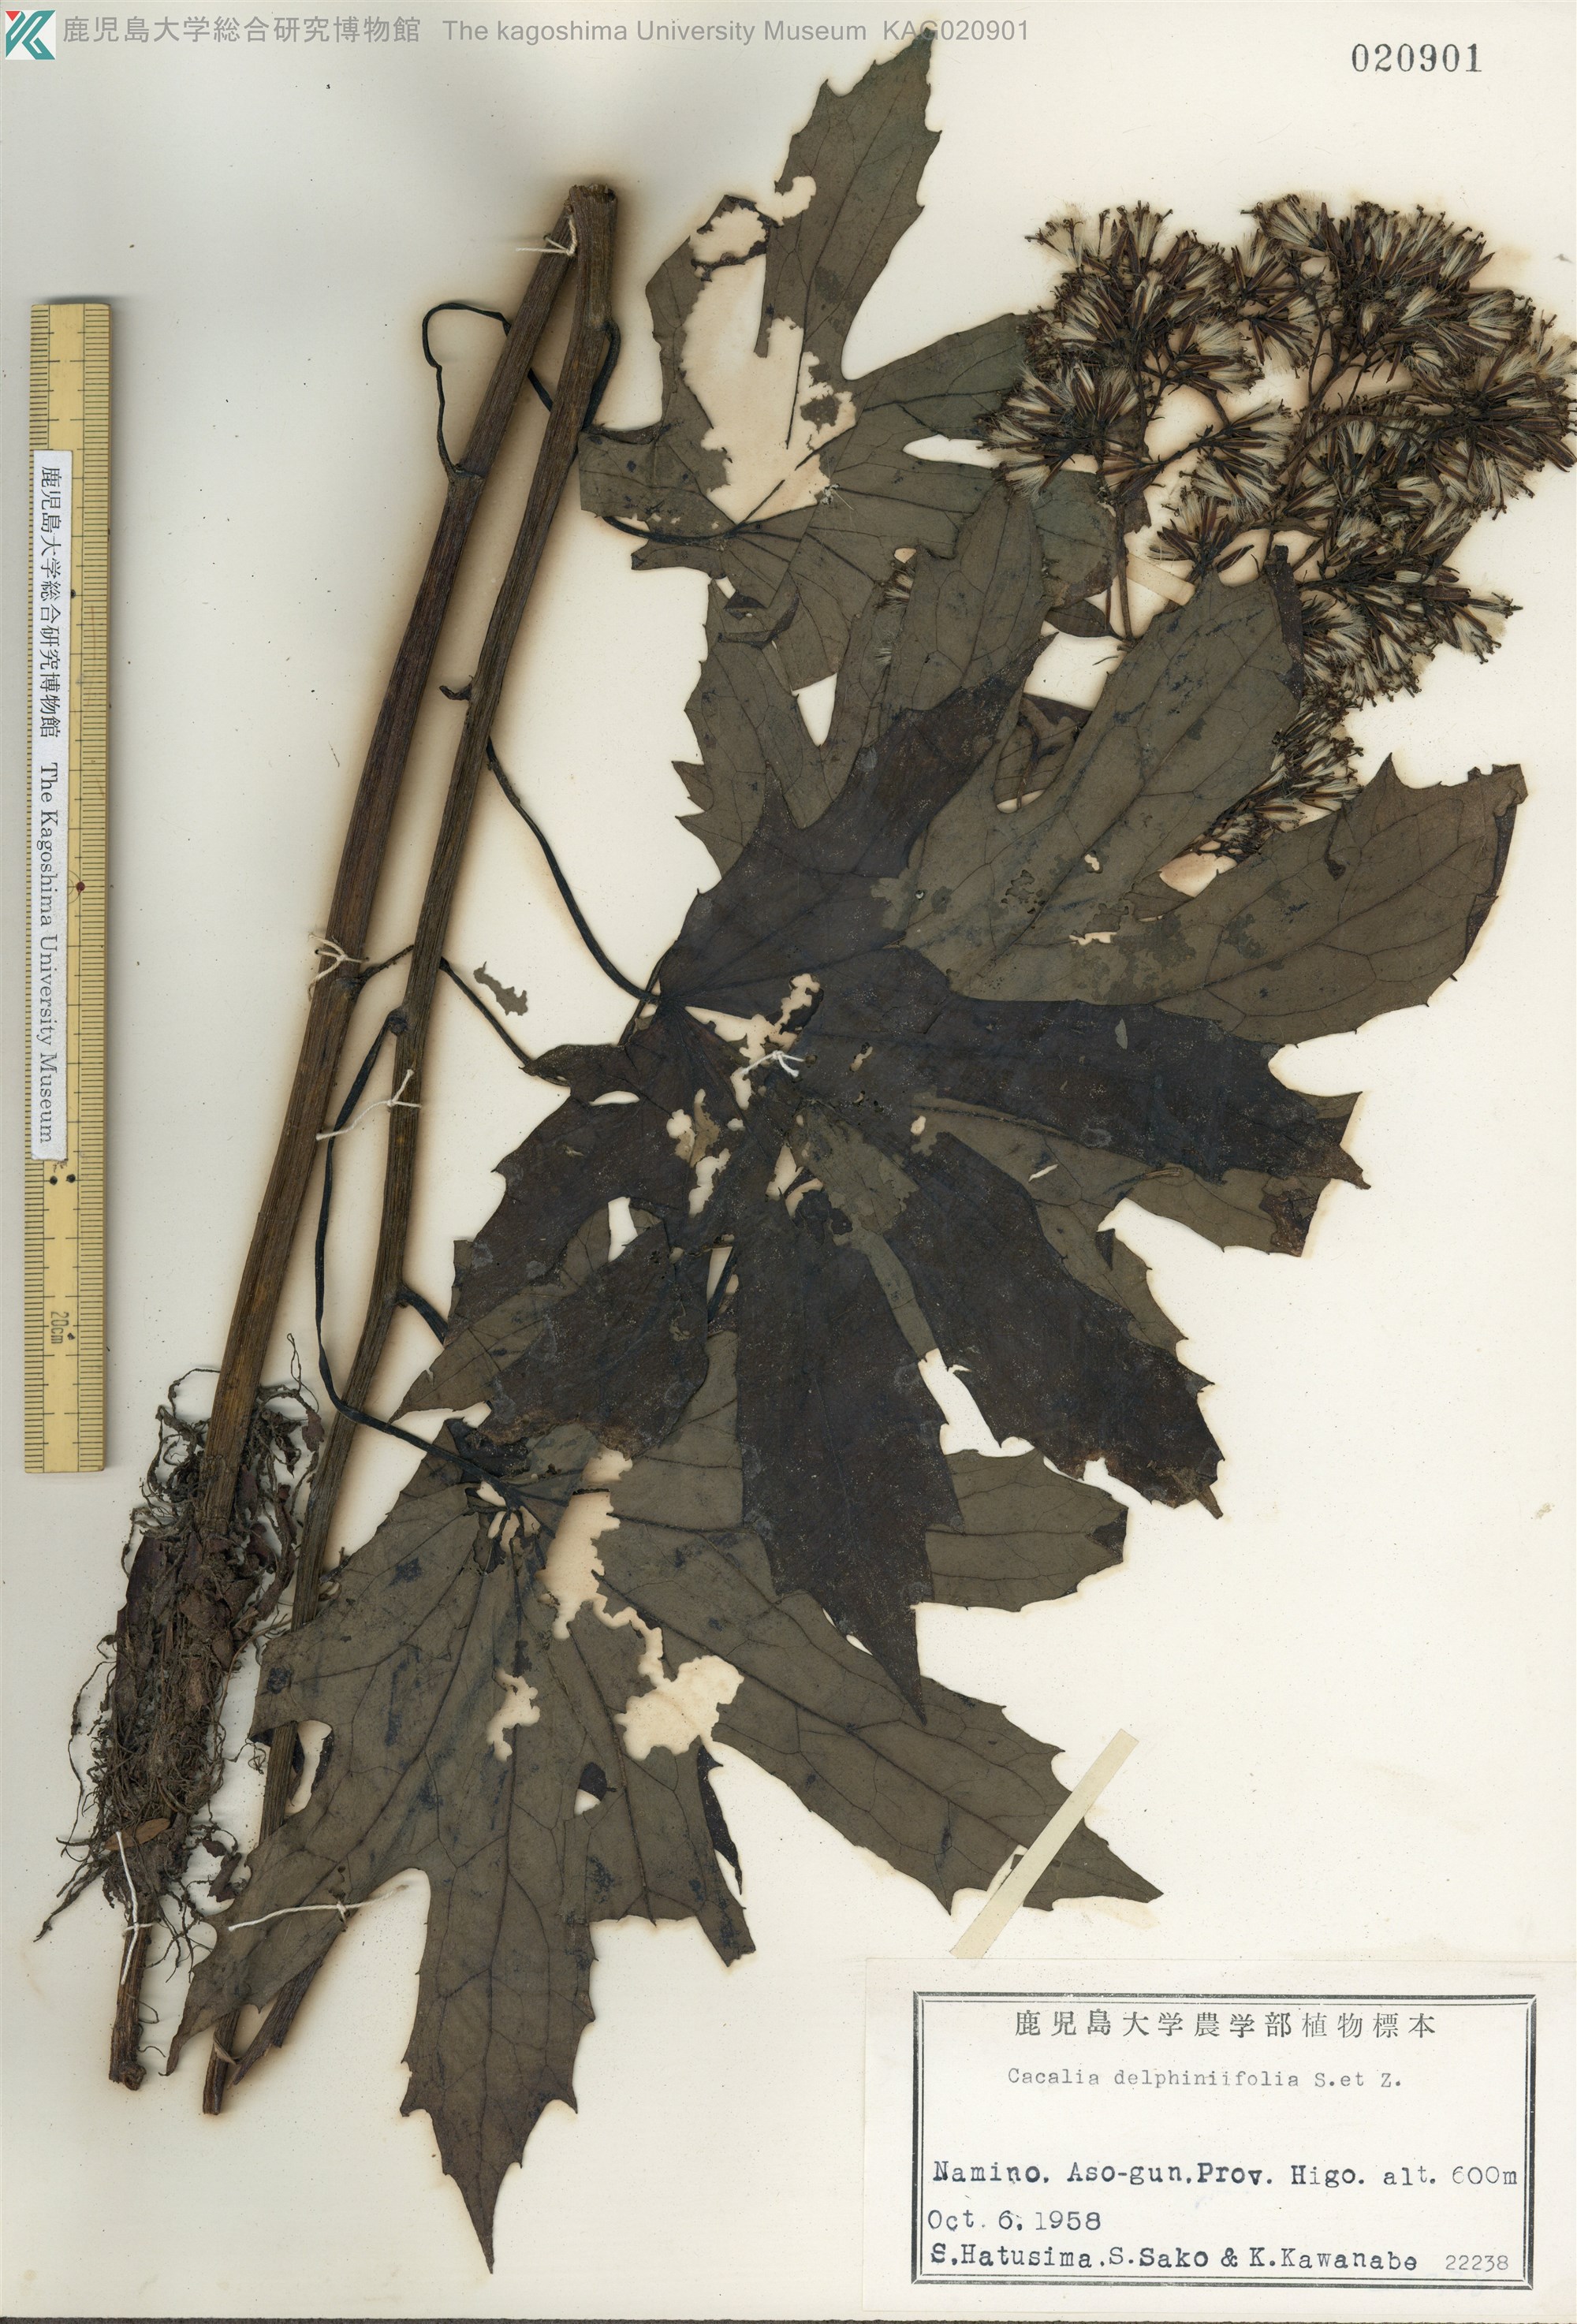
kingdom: Plantae
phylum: Tracheophyta
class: Magnoliopsida
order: Asterales
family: Asteraceae
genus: Japonicalia
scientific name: Japonicalia delphiniifolia
